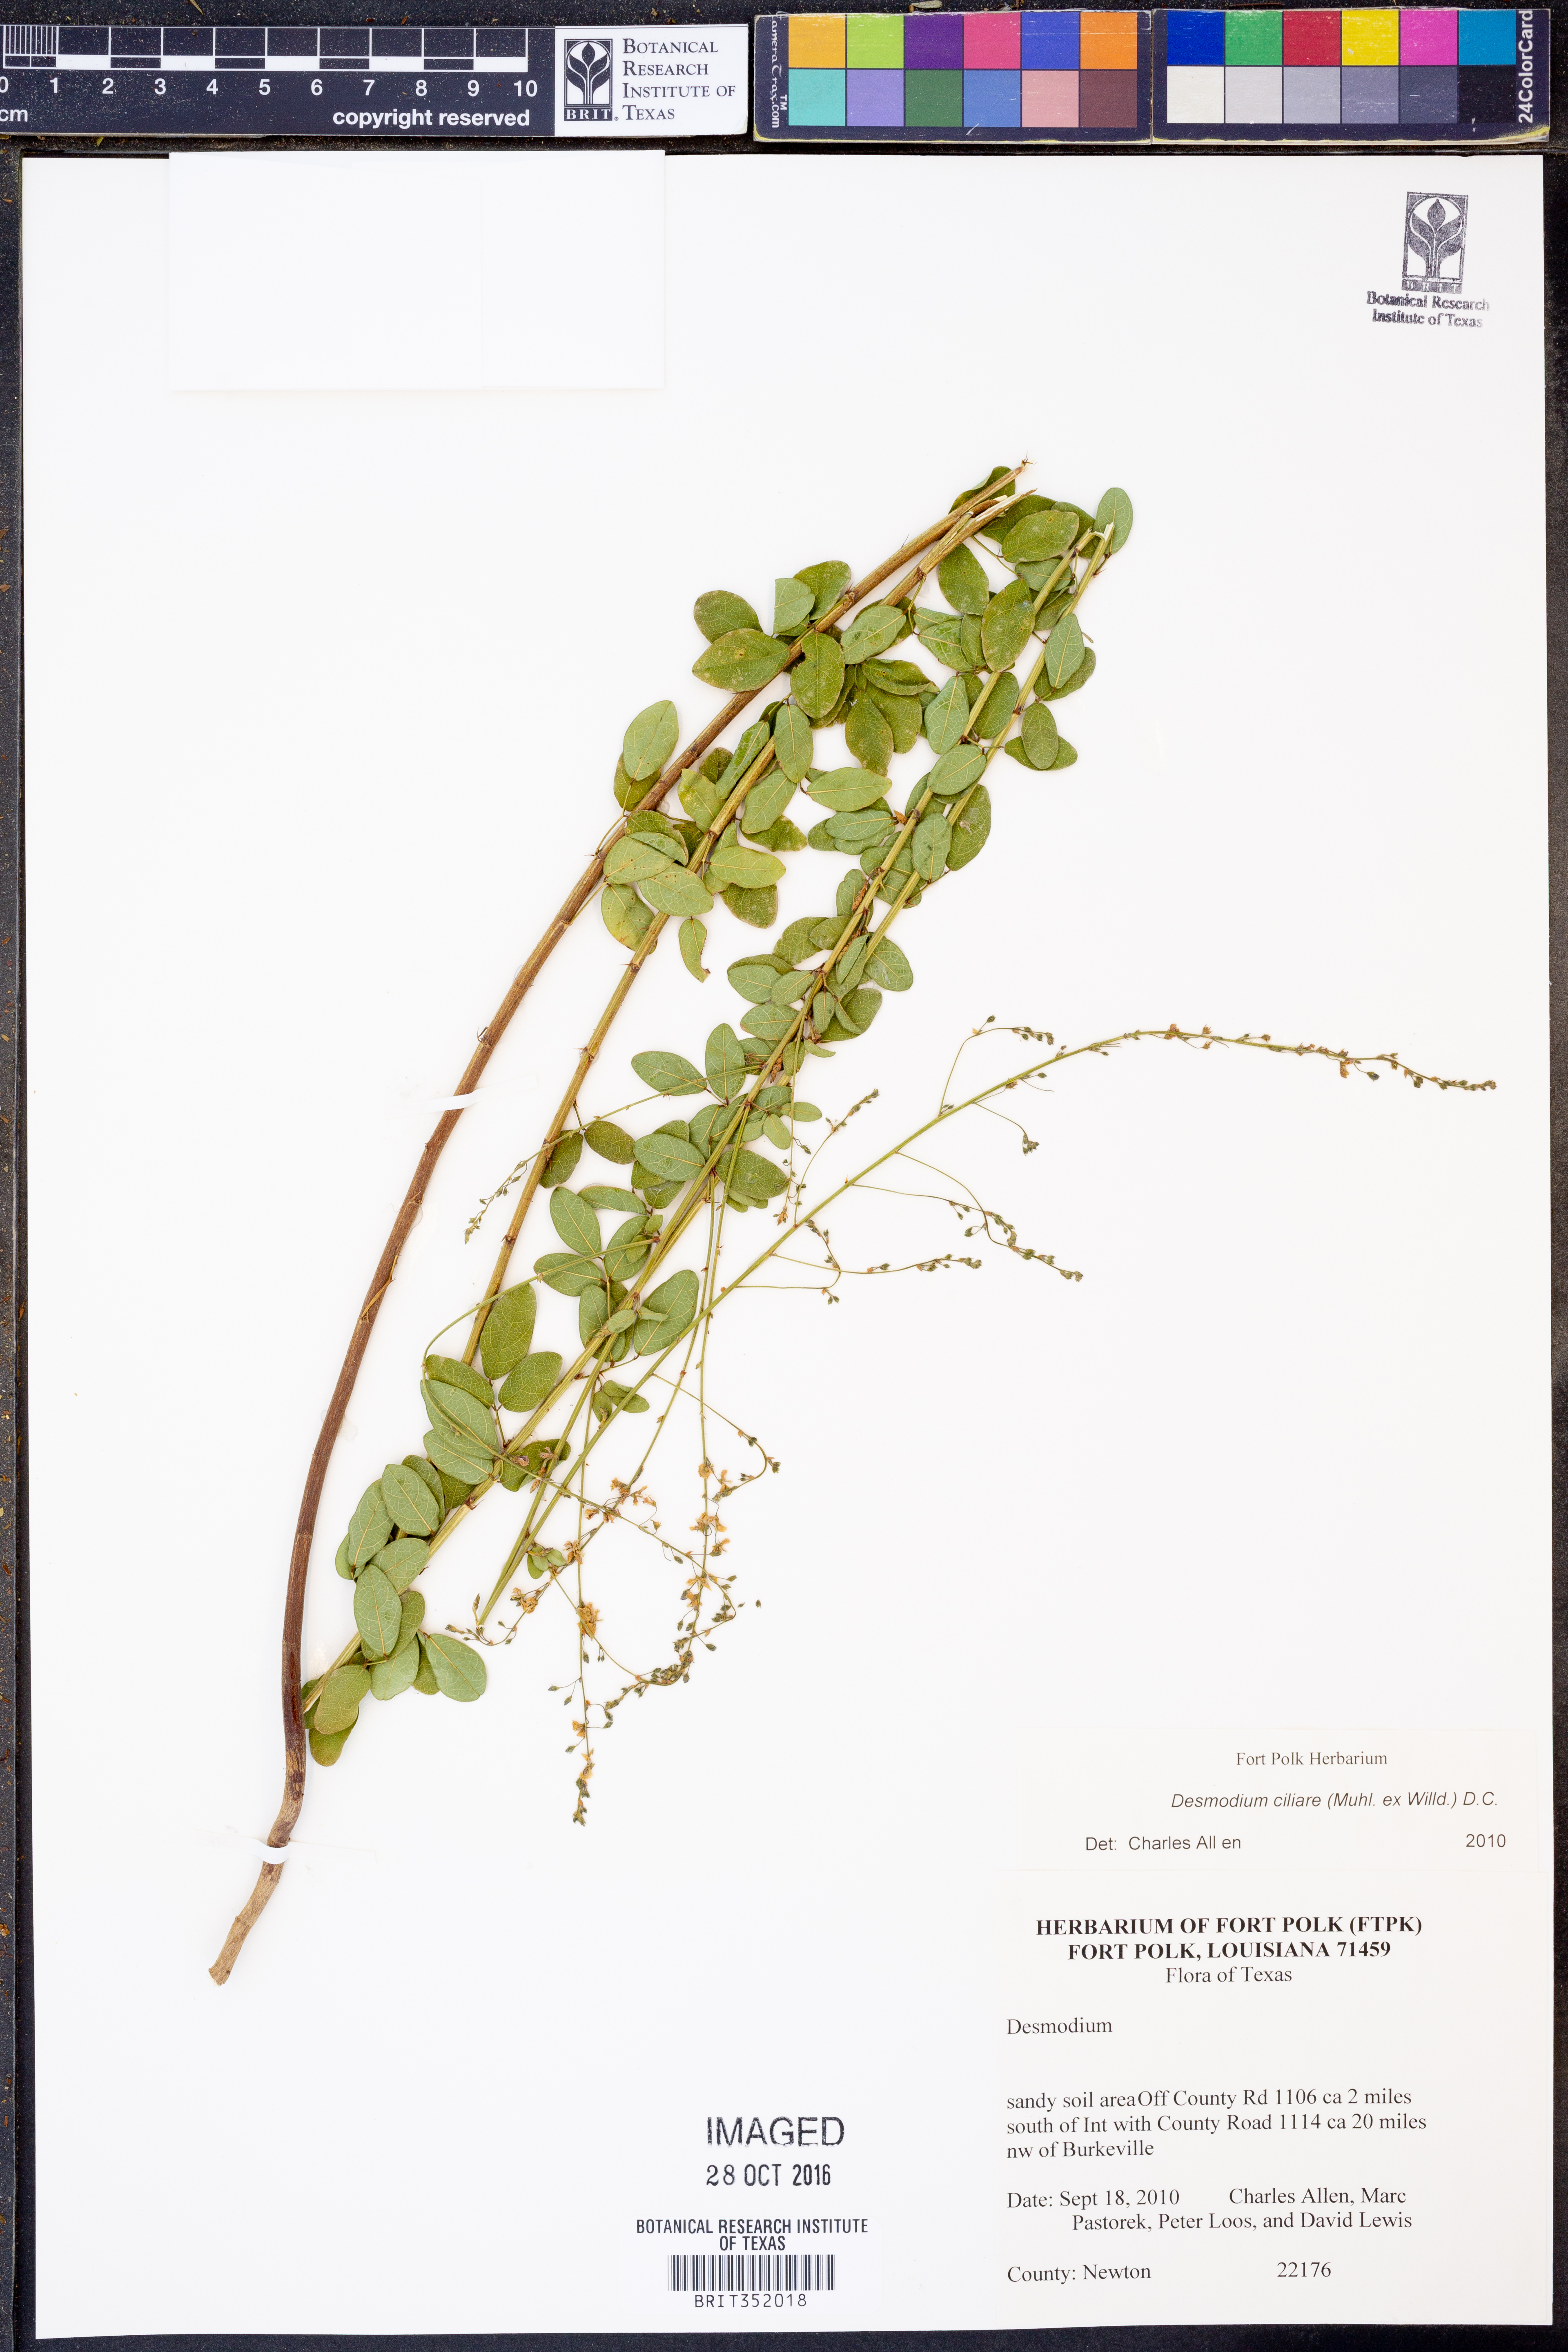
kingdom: Plantae
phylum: Tracheophyta
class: Magnoliopsida
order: Fabales
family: Fabaceae
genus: Desmodium
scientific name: Desmodium ciliare
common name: Hairy small-leaf ticktrefoil
